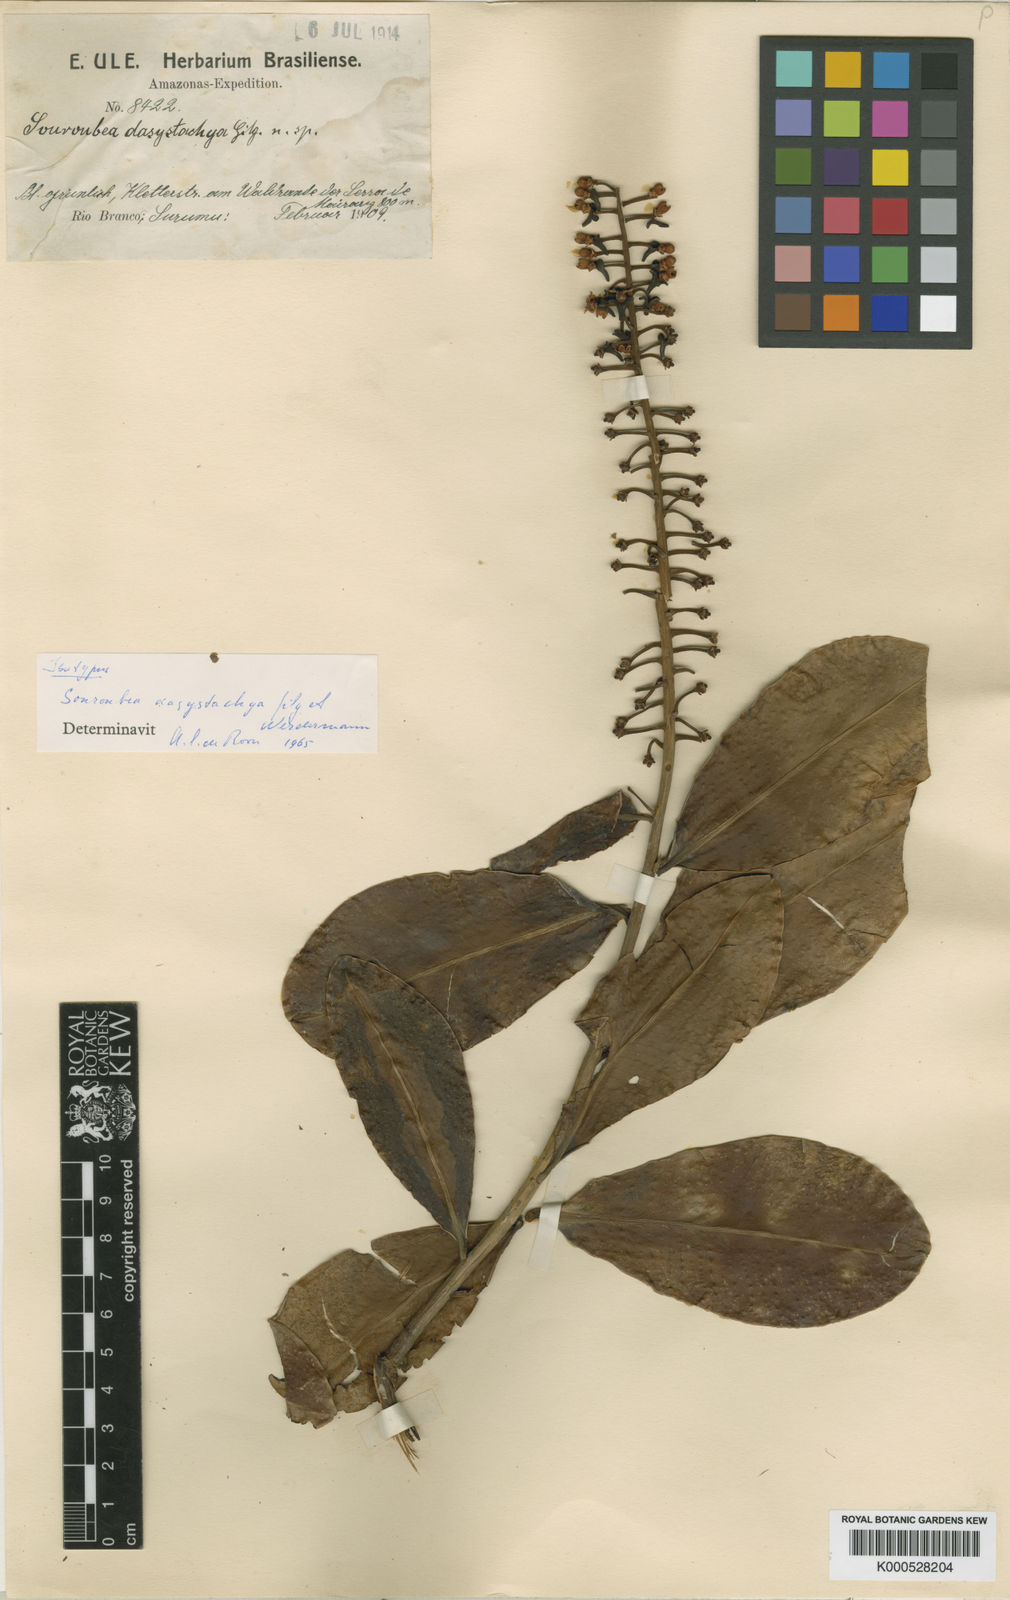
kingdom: Plantae
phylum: Tracheophyta
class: Magnoliopsida
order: Ericales
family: Marcgraviaceae
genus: Souroubea
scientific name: Souroubea dasystachya
